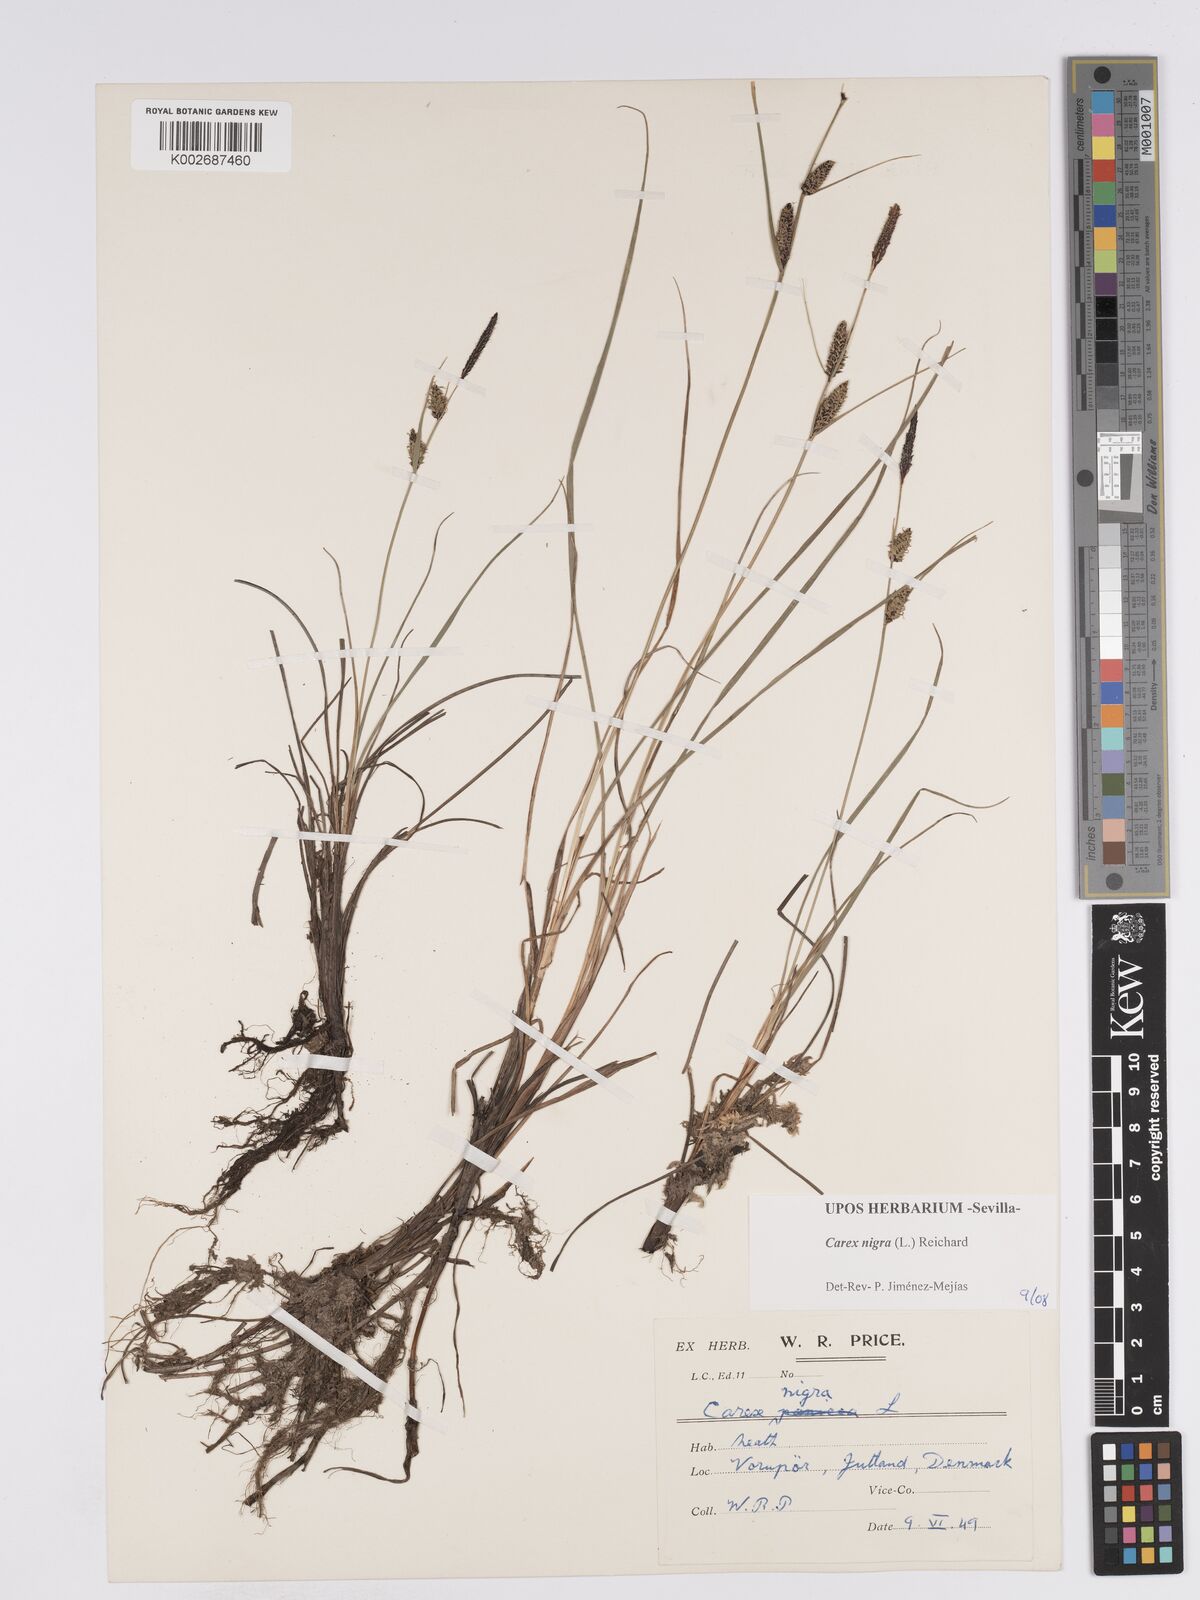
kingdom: Plantae
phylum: Tracheophyta
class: Liliopsida
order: Poales
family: Cyperaceae
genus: Carex
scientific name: Carex nigra
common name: Common sedge
